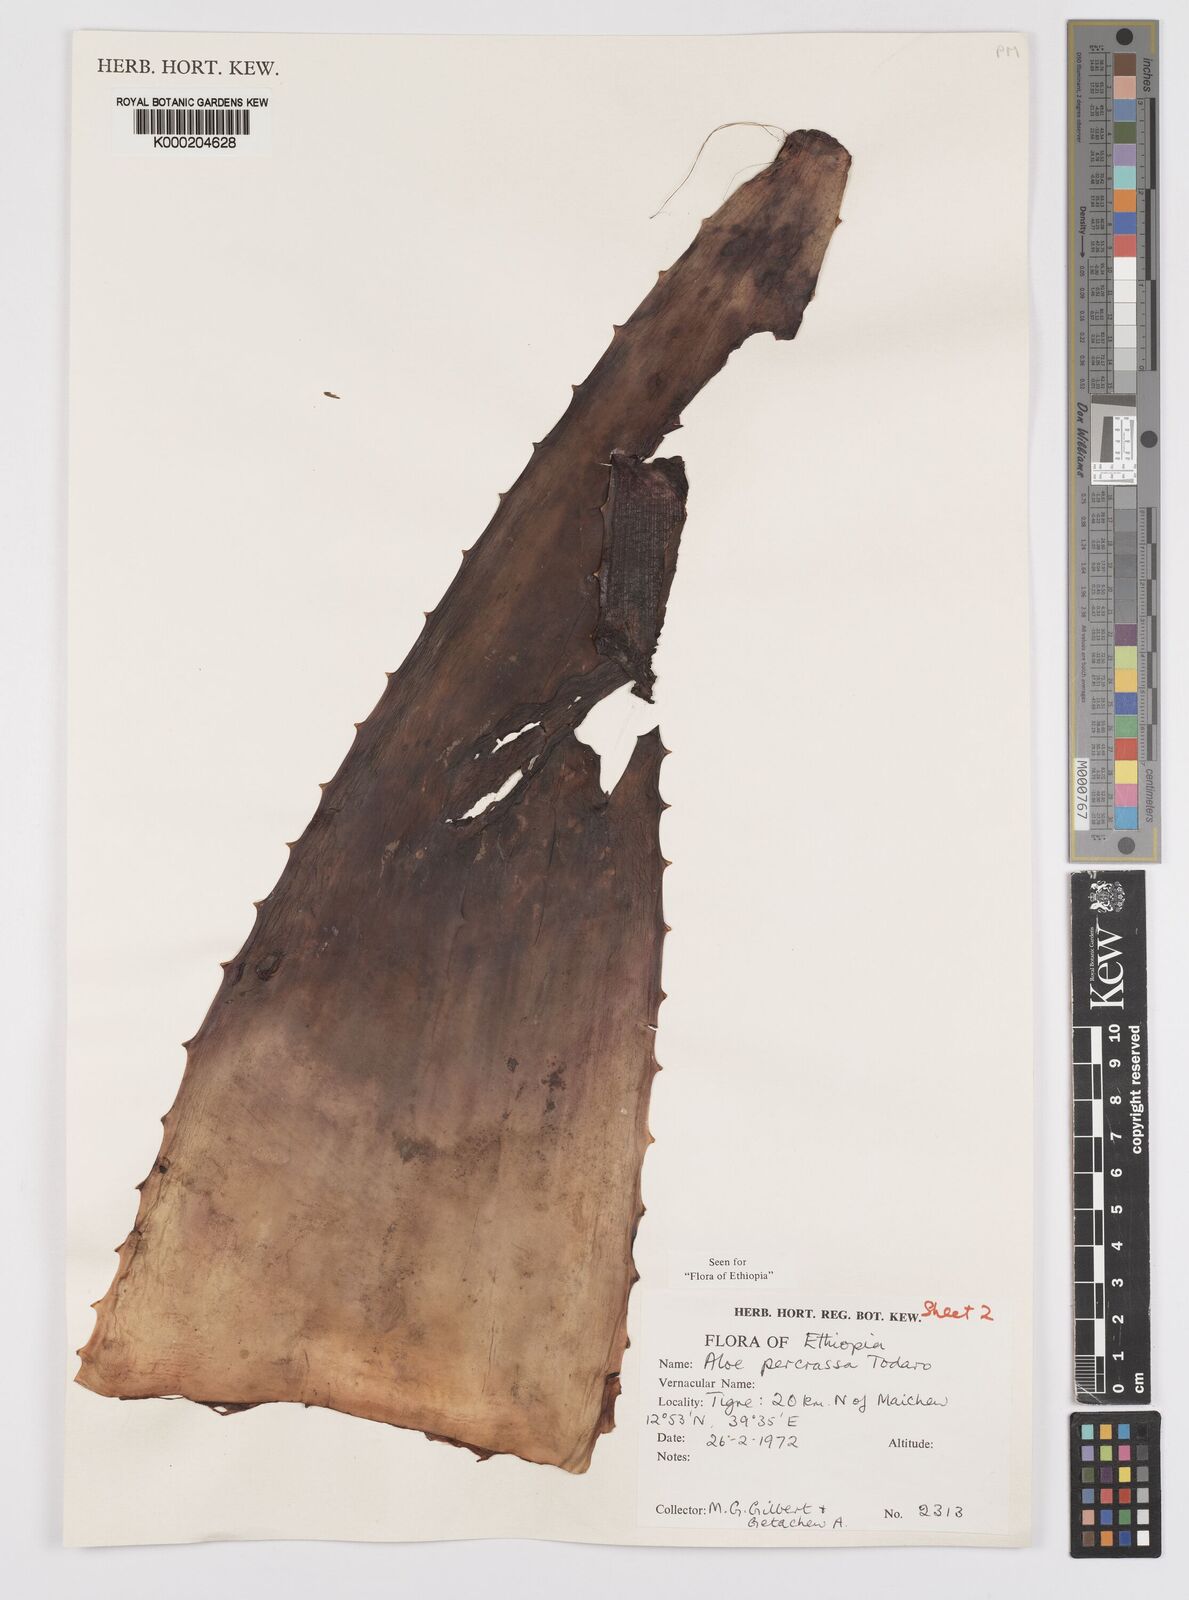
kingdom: Plantae
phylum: Tracheophyta
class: Liliopsida
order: Asparagales
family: Asphodelaceae
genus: Aloe
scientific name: Aloe percrassa
